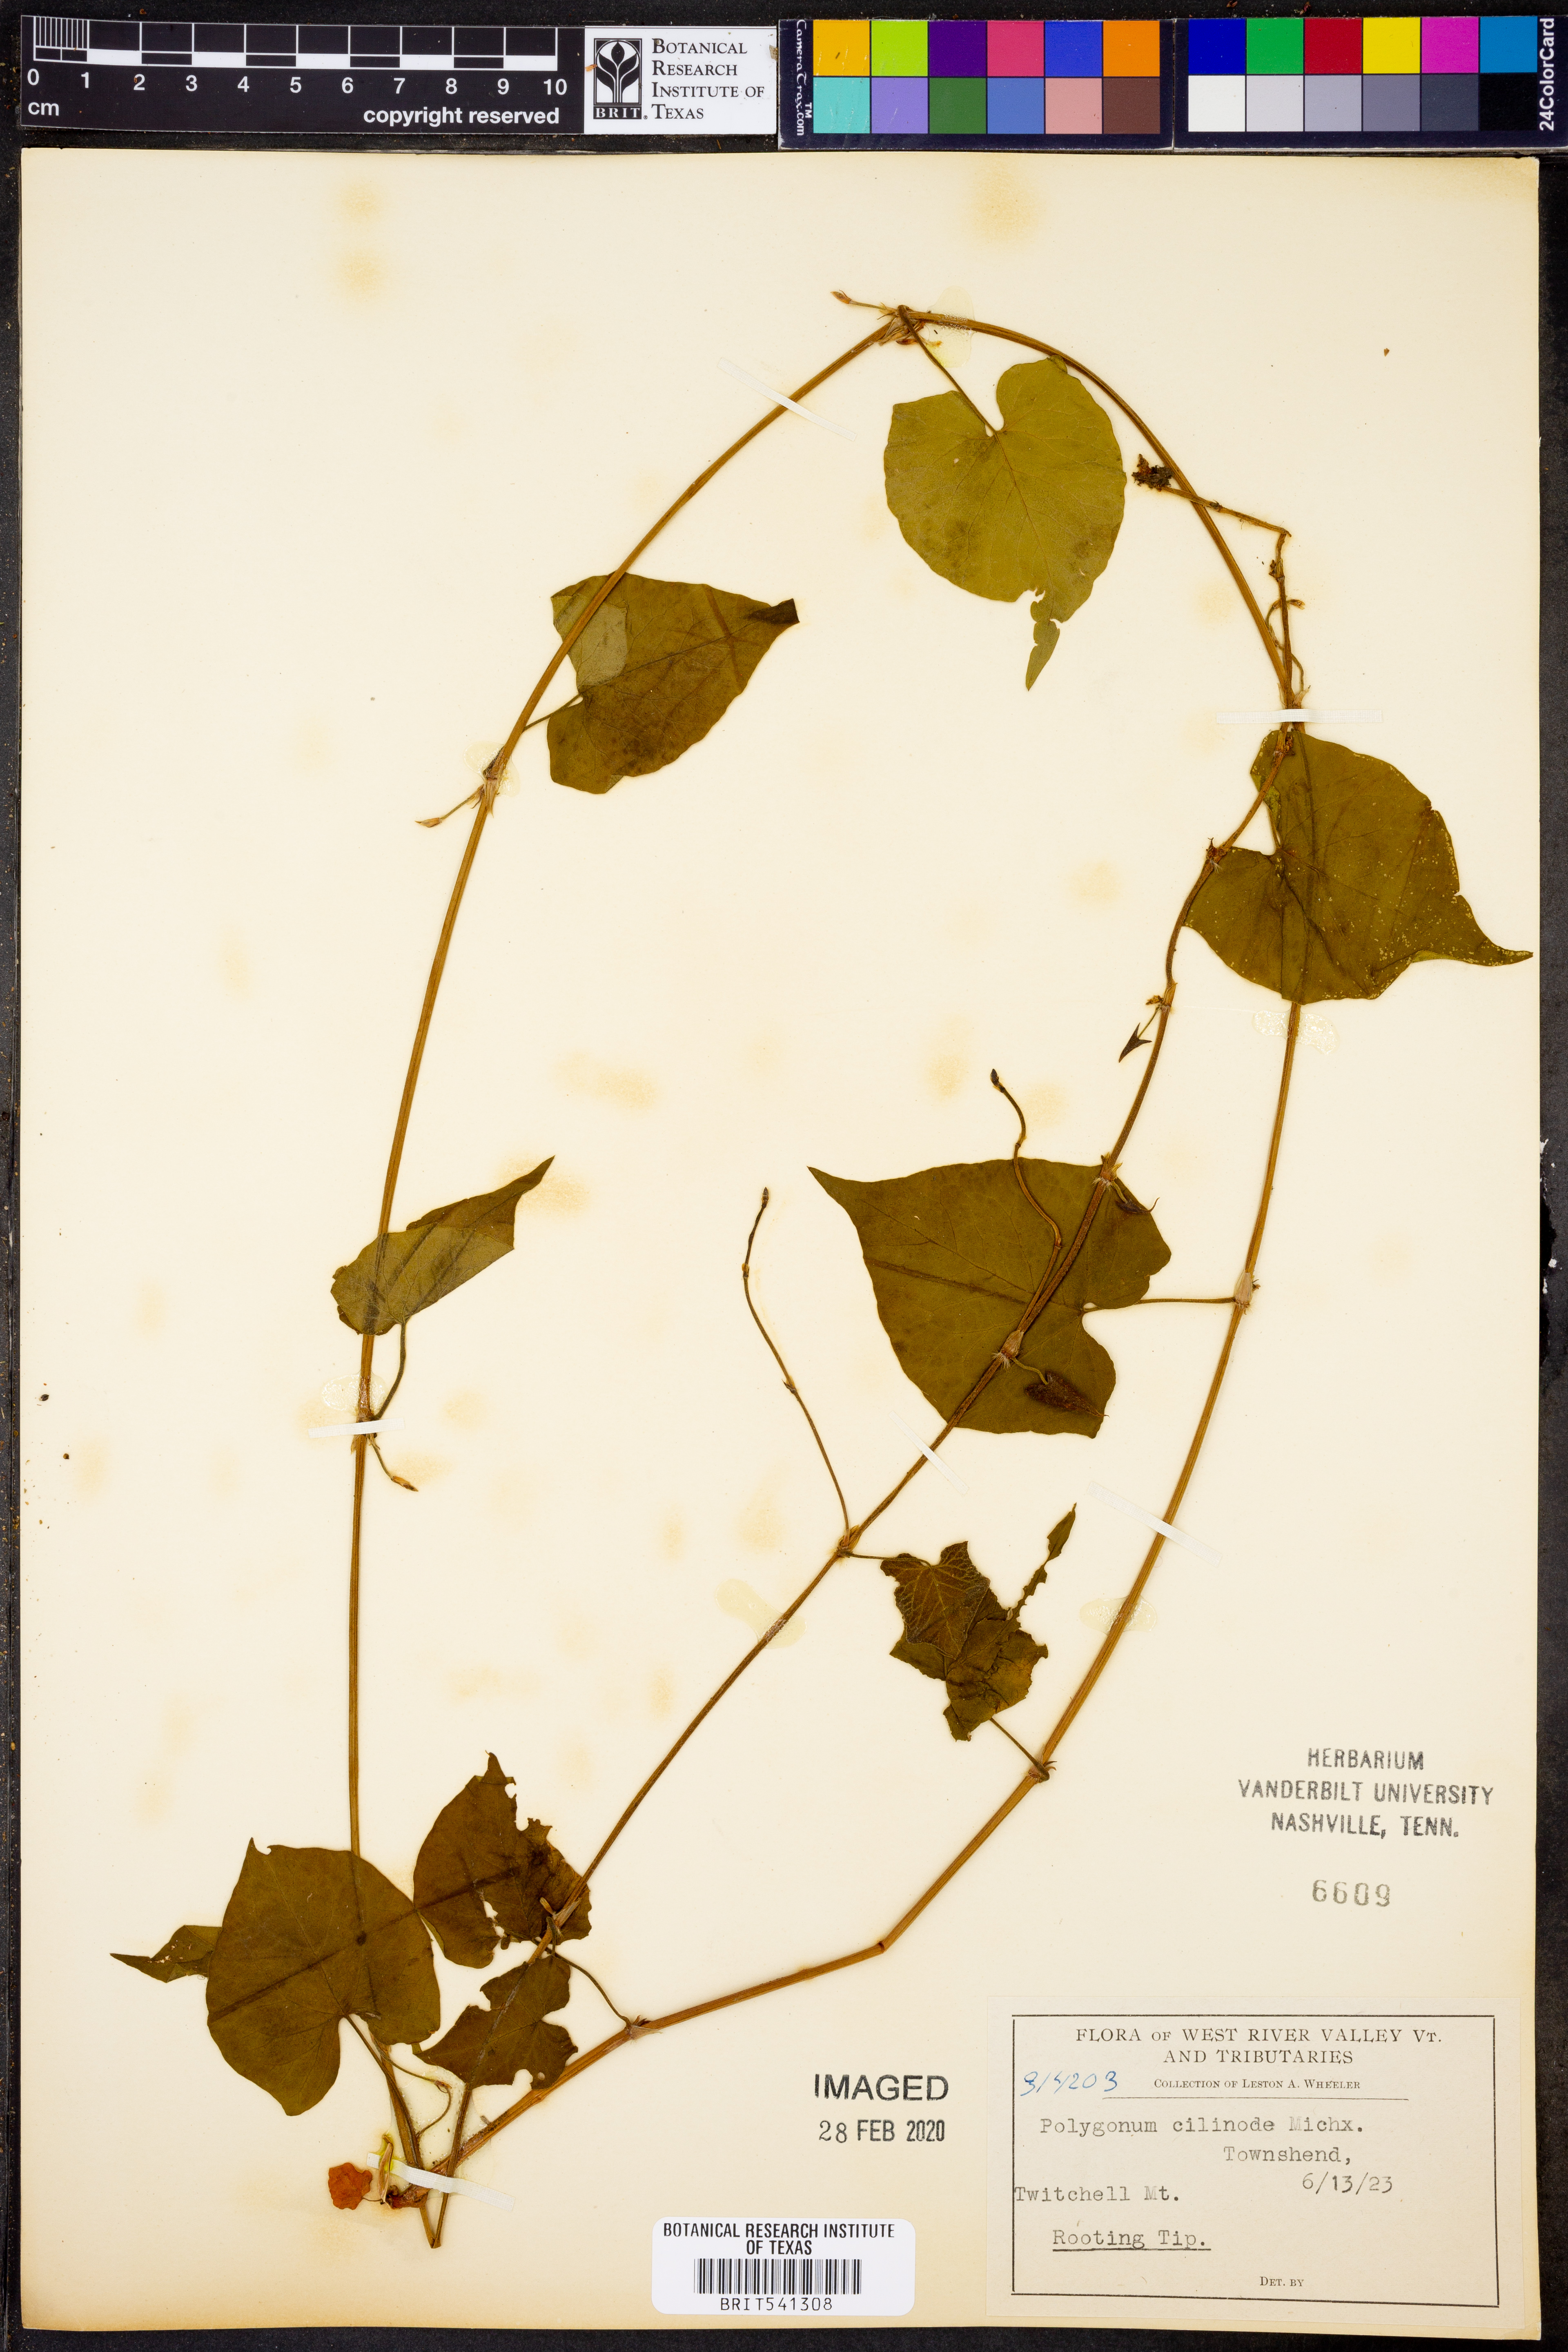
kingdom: Plantae
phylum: Tracheophyta
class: Magnoliopsida
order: Caryophyllales
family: Polygonaceae
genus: Parogonum
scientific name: Parogonum ciliinode
